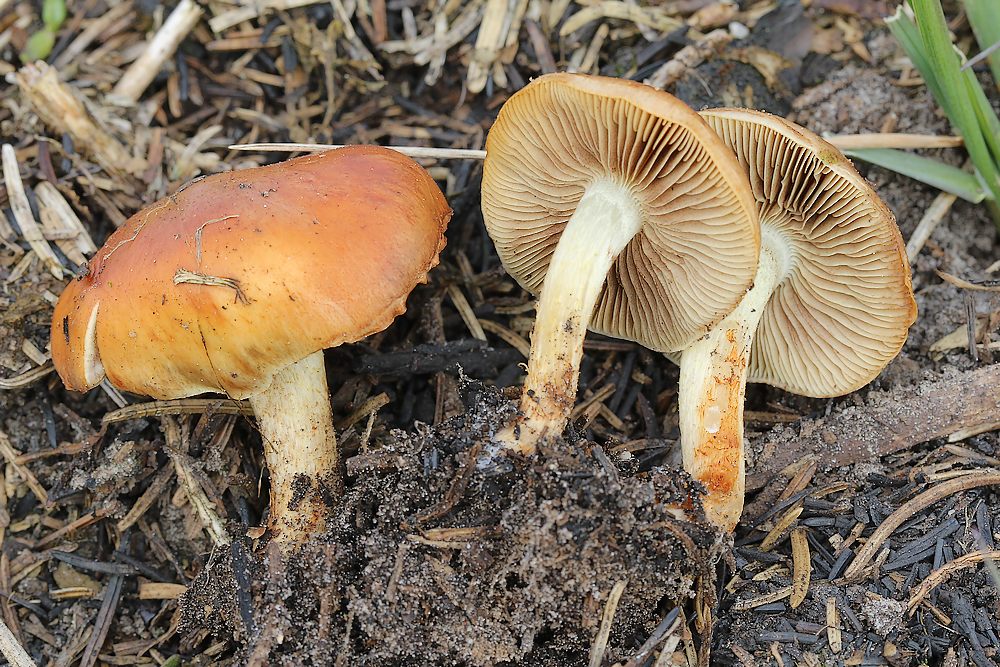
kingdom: Fungi
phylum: Basidiomycota
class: Agaricomycetes
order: Agaricales
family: Strophariaceae
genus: Pholiota
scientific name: Pholiota carbonaria
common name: kul-skælhat
